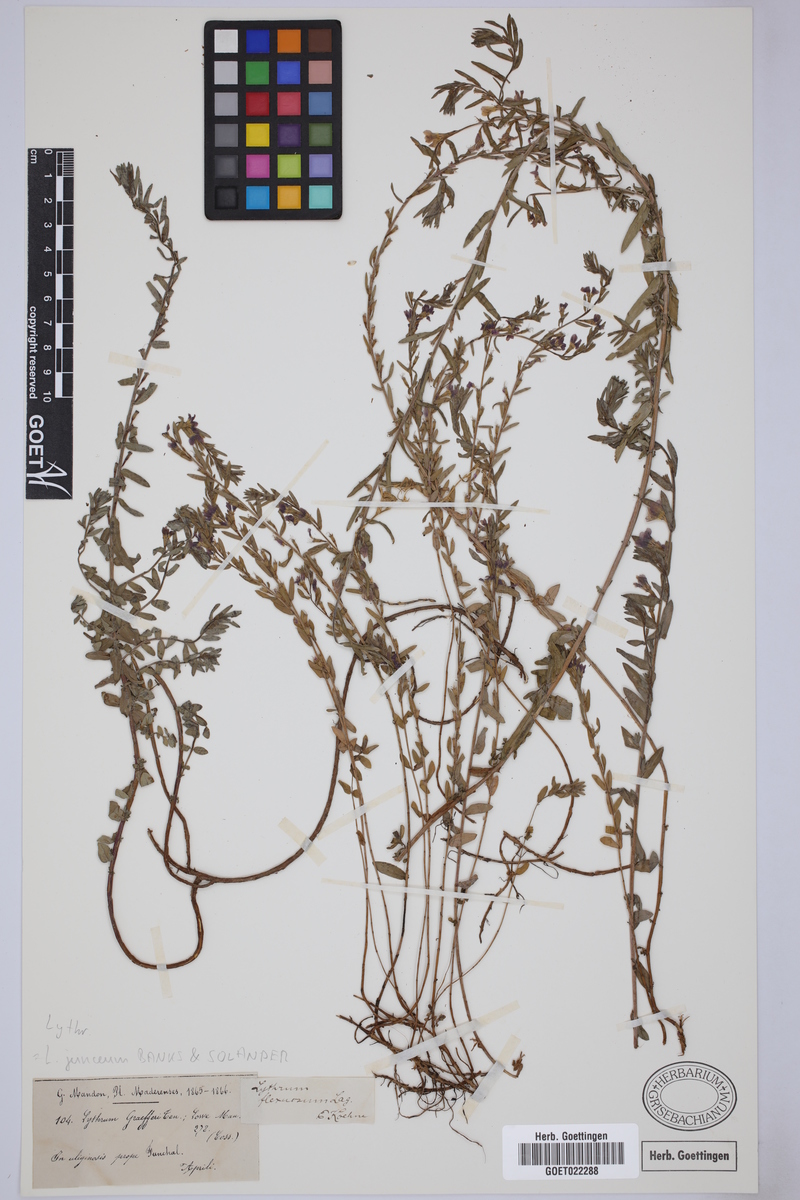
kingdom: Plantae
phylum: Tracheophyta
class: Magnoliopsida
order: Myrtales
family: Lythraceae
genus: Lythrum
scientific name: Lythrum junceum
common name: False grass-poly
